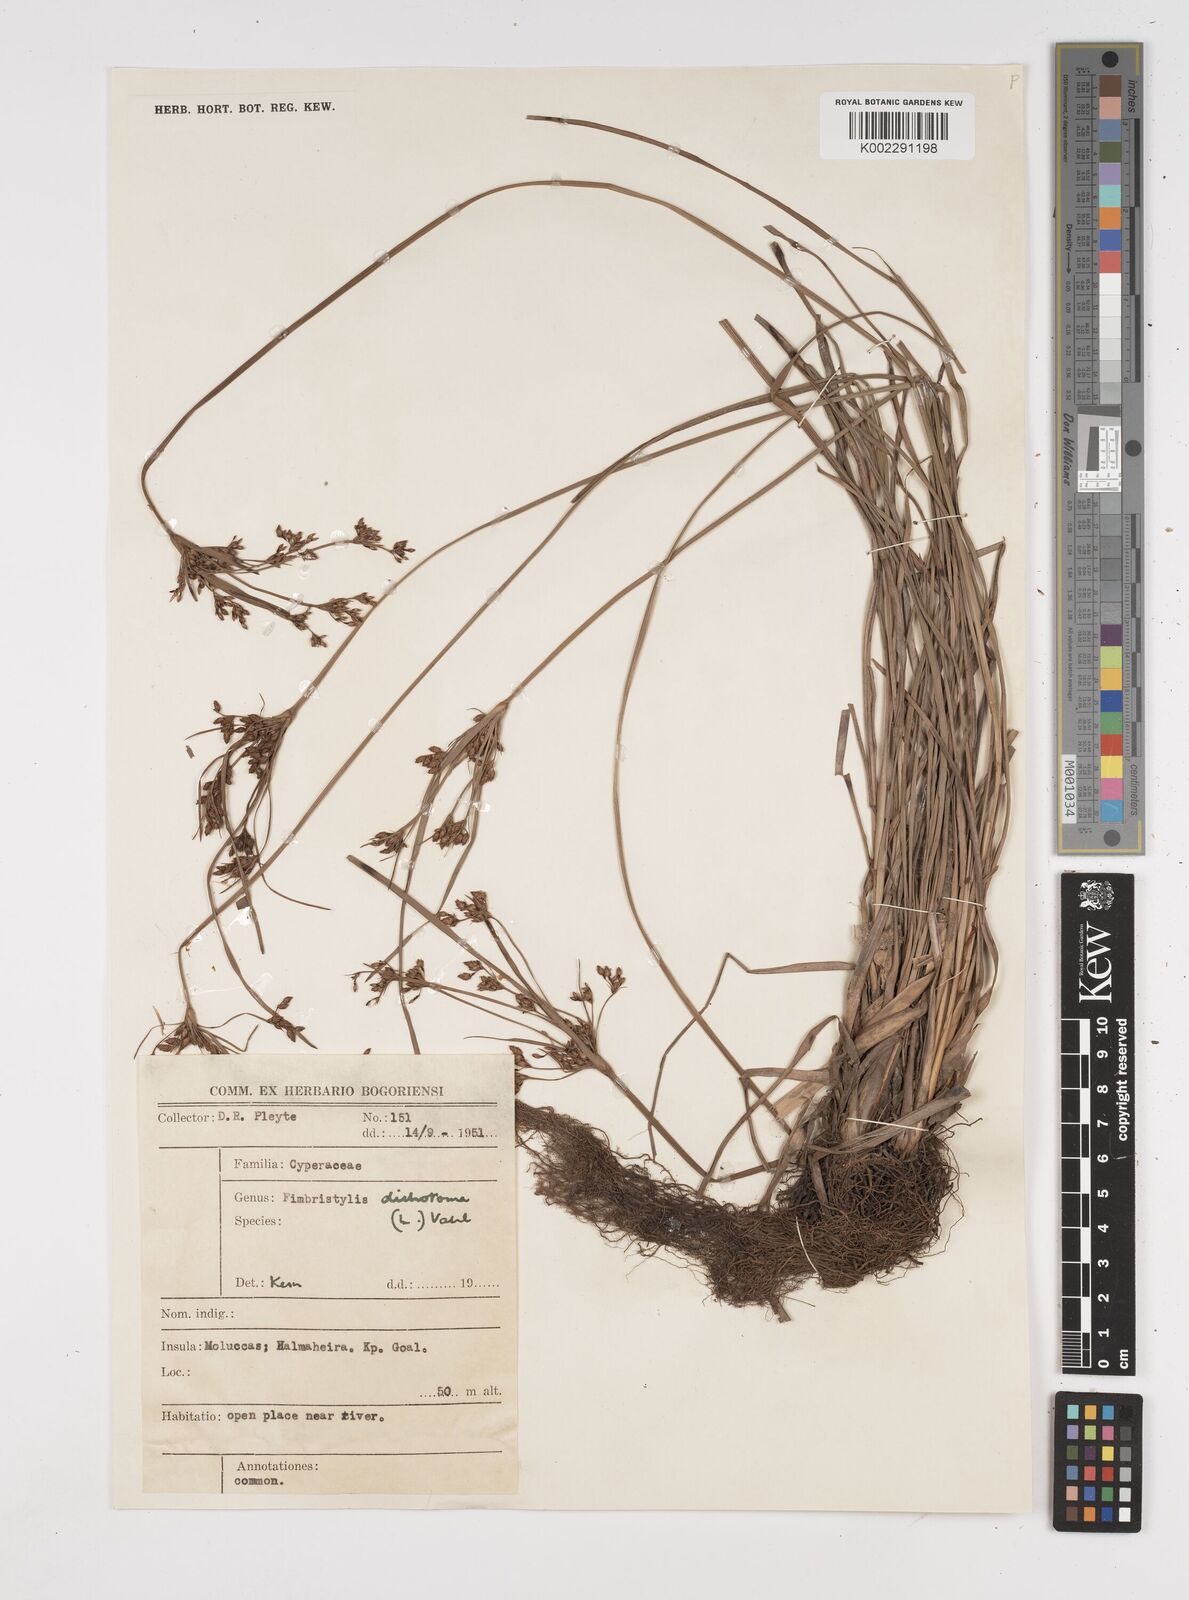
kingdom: Plantae
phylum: Tracheophyta
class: Liliopsida
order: Poales
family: Cyperaceae
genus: Fimbristylis
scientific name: Fimbristylis dichotoma
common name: Forked fimbry
